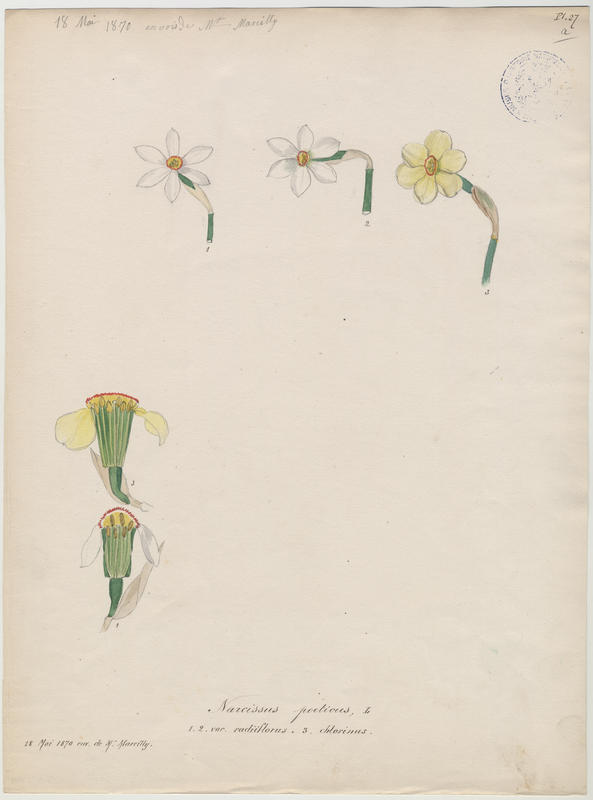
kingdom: Plantae
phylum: Tracheophyta
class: Liliopsida
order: Asparagales
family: Amaryllidaceae
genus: Narcissus
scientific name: Narcissus poeticus
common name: Pheasant's-eye daffodil
